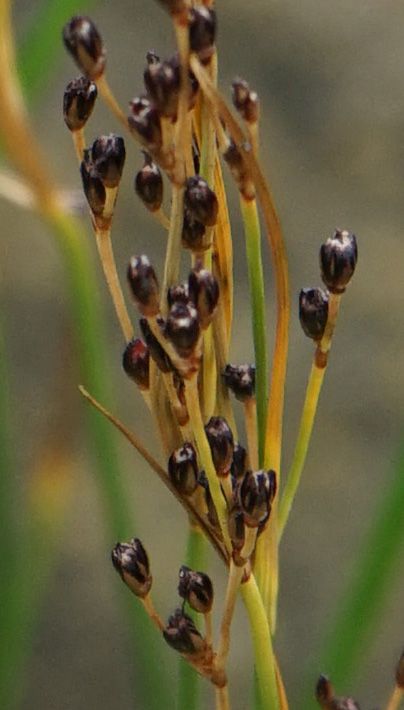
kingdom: Plantae
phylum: Tracheophyta
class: Liliopsida
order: Poales
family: Juncaceae
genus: Juncus
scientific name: Juncus
